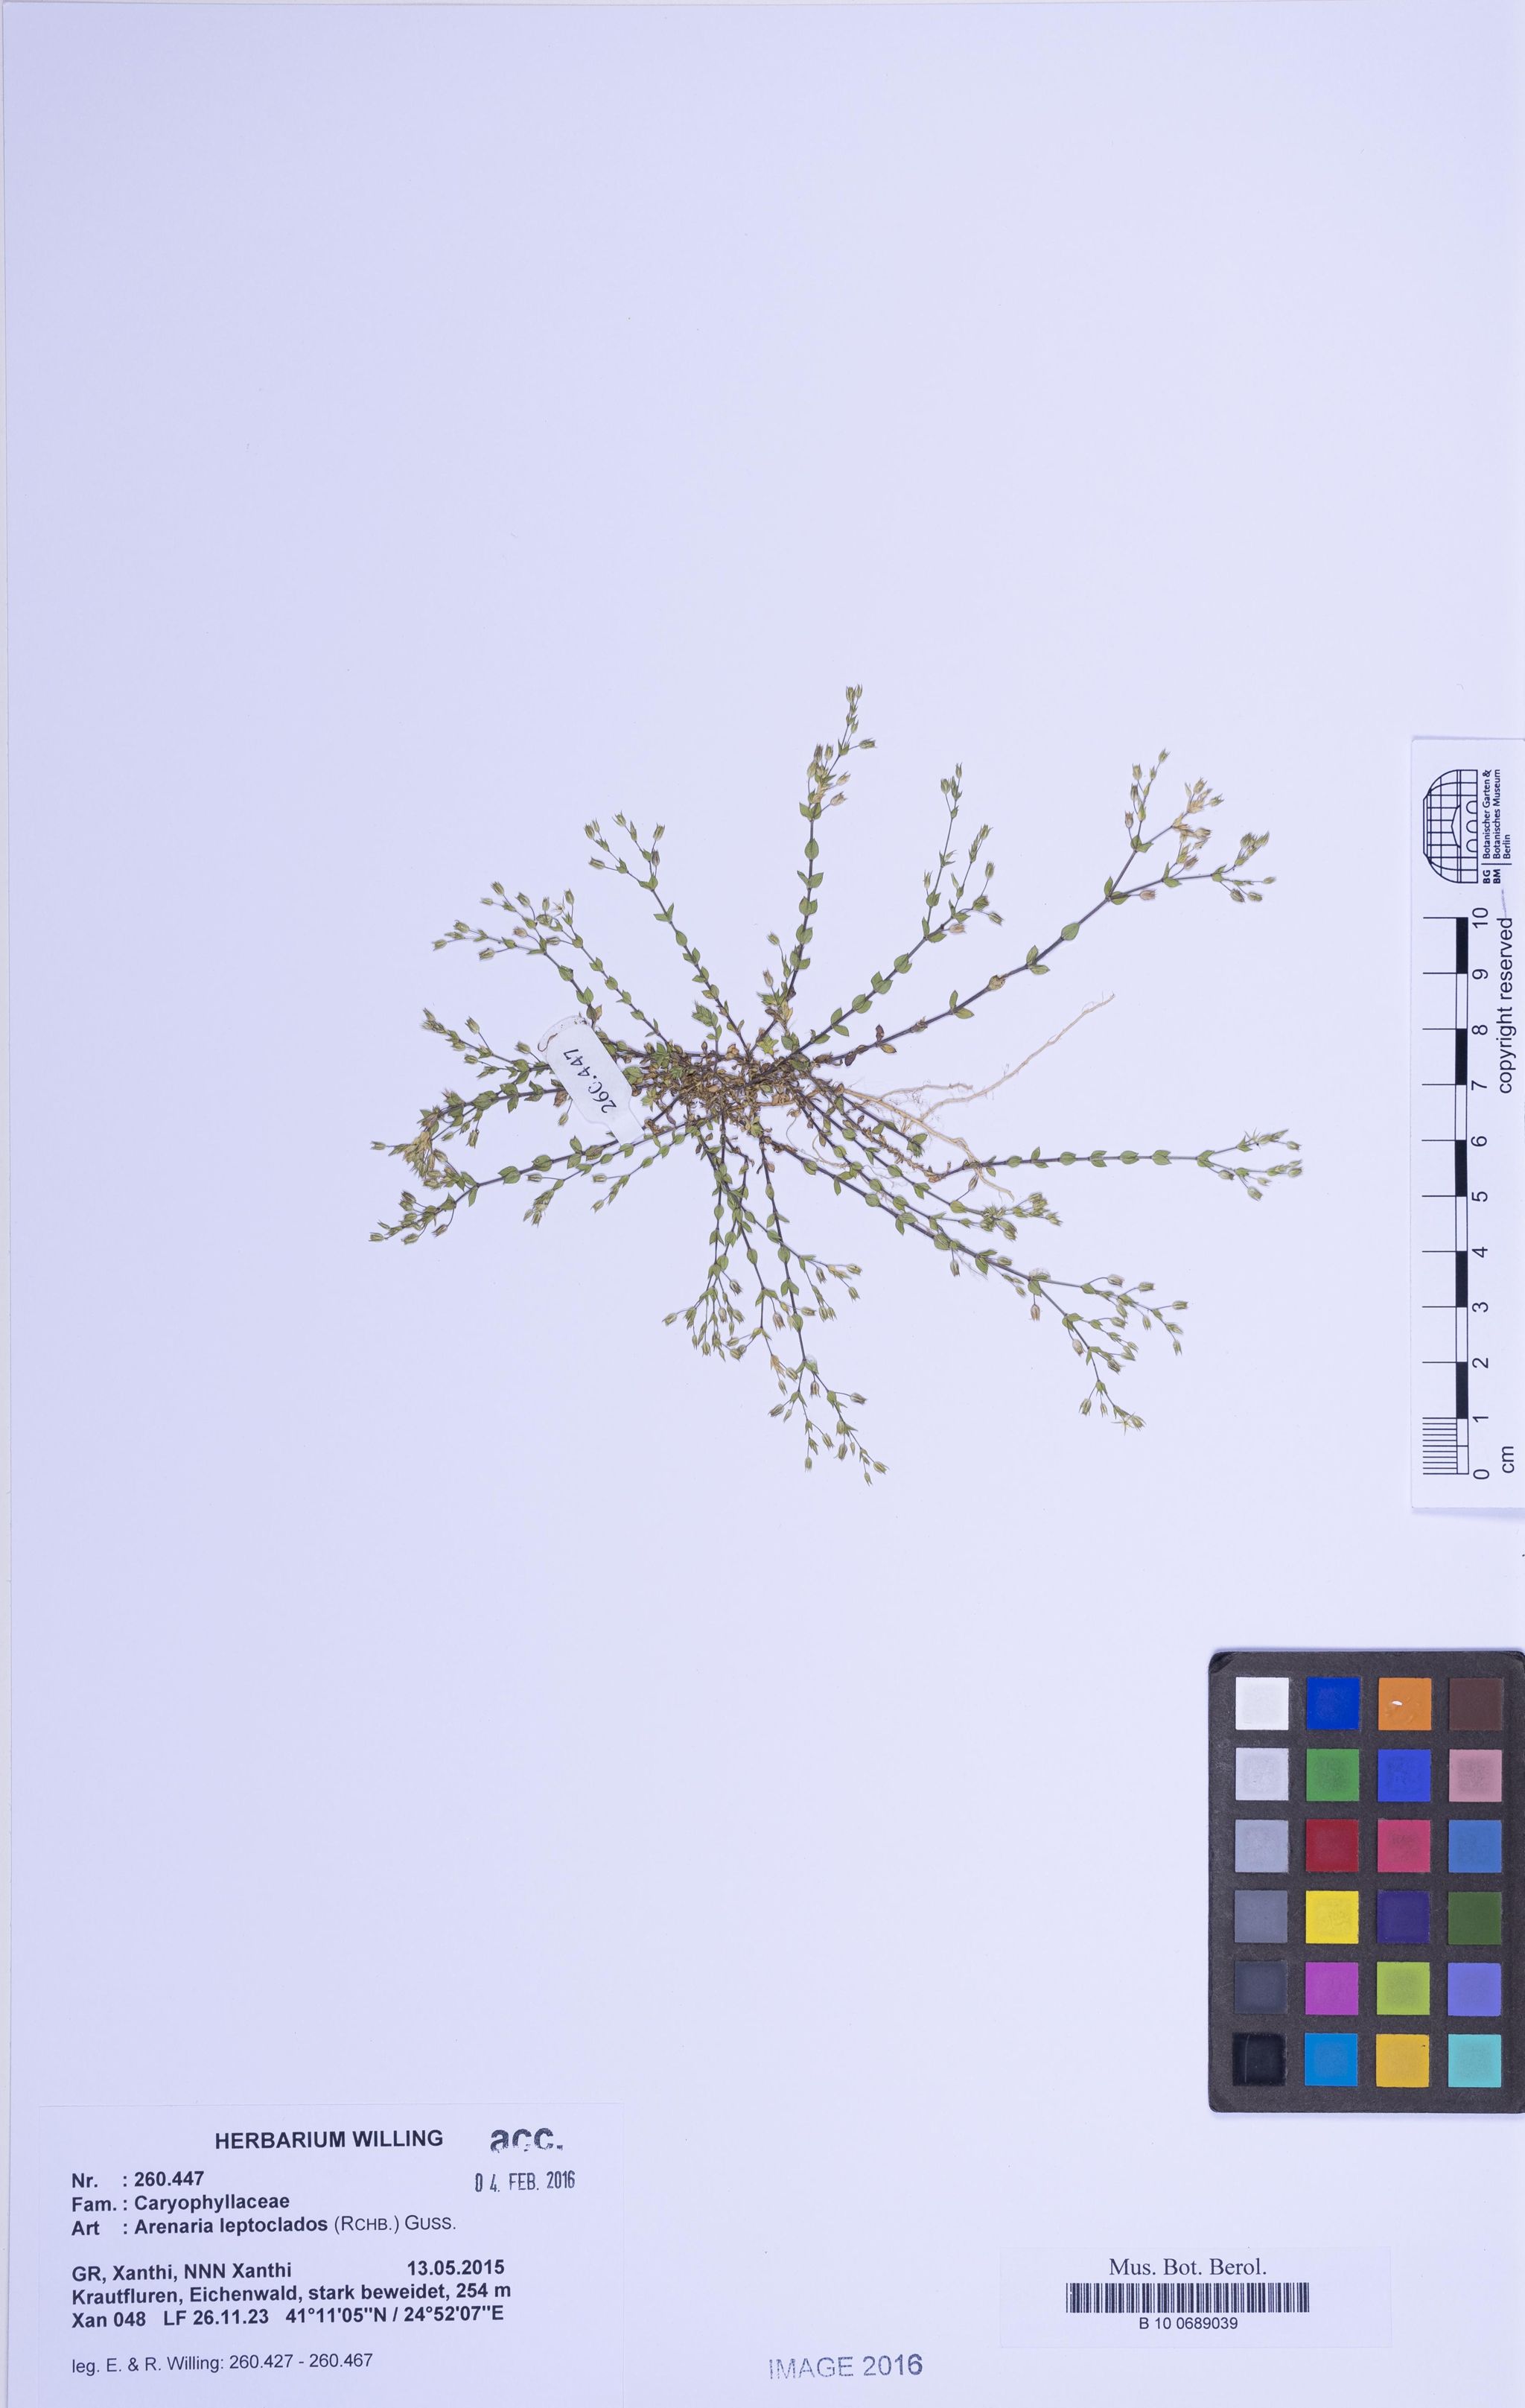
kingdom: Plantae
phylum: Tracheophyta
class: Magnoliopsida
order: Caryophyllales
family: Caryophyllaceae
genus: Arenaria
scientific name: Arenaria leptoclados
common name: Thyme-leaved sandwort
